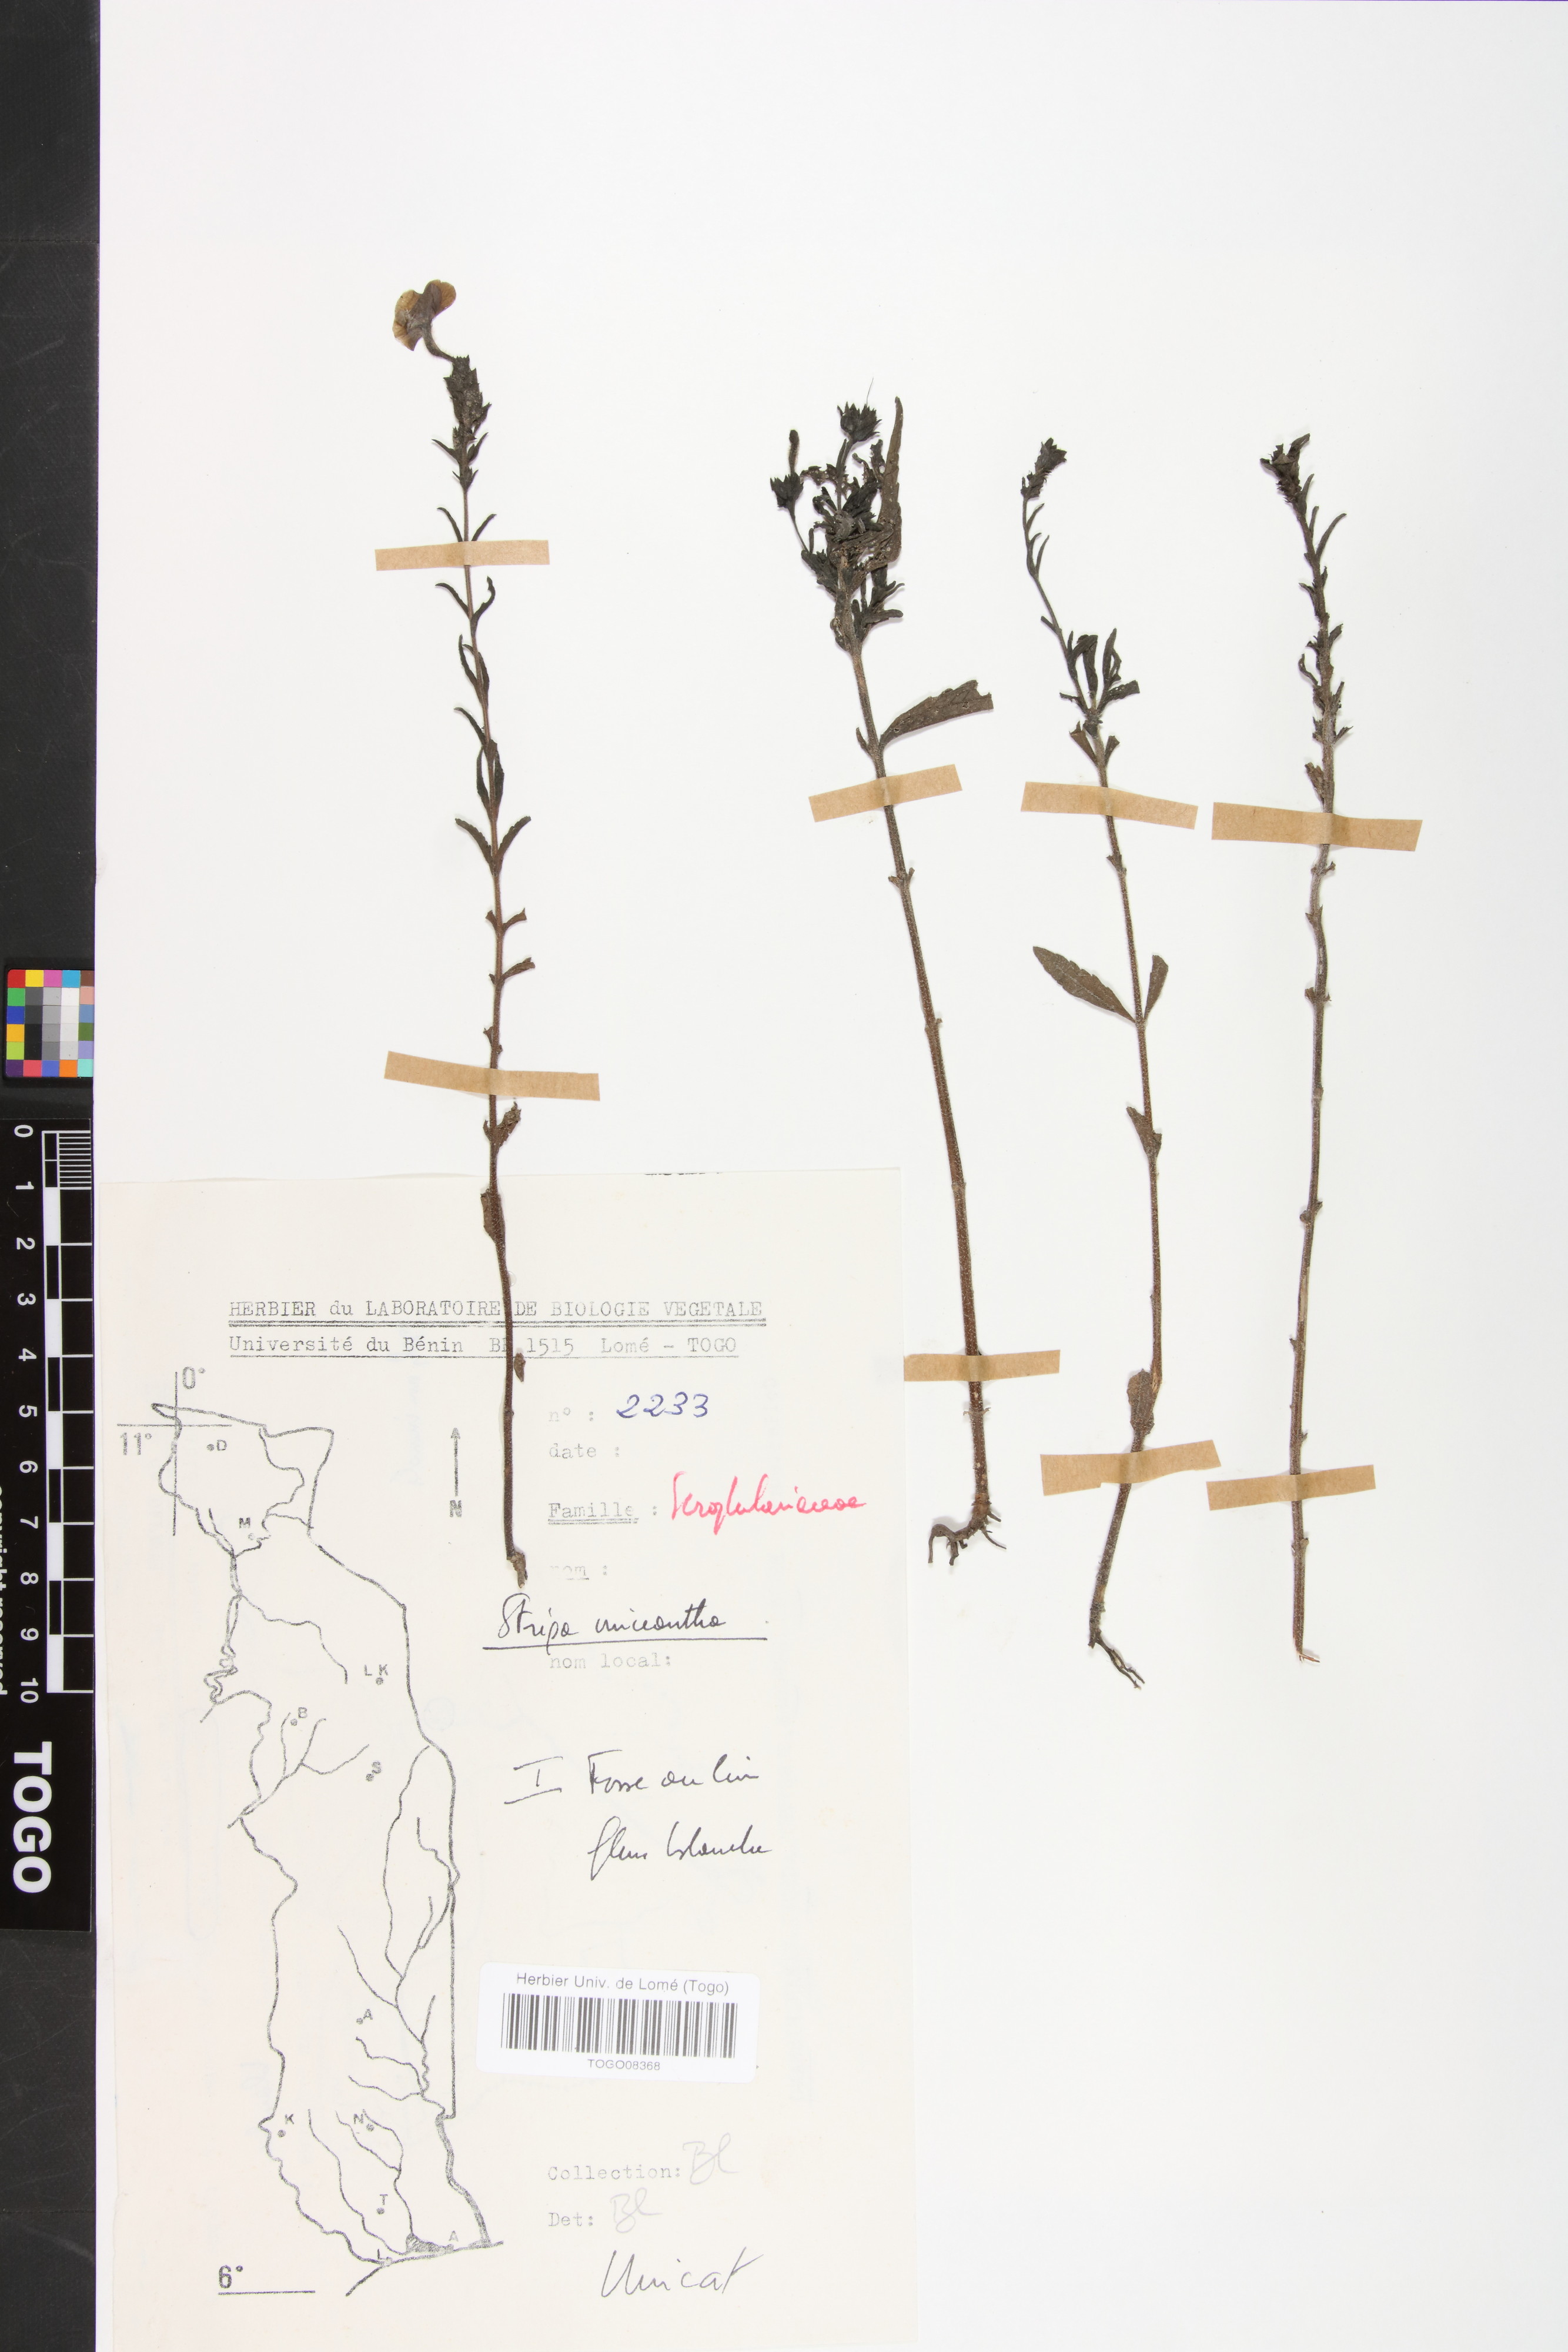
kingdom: Plantae
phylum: Tracheophyta
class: Magnoliopsida
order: Lamiales
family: Orobanchaceae
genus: Striga
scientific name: Striga macrantha
